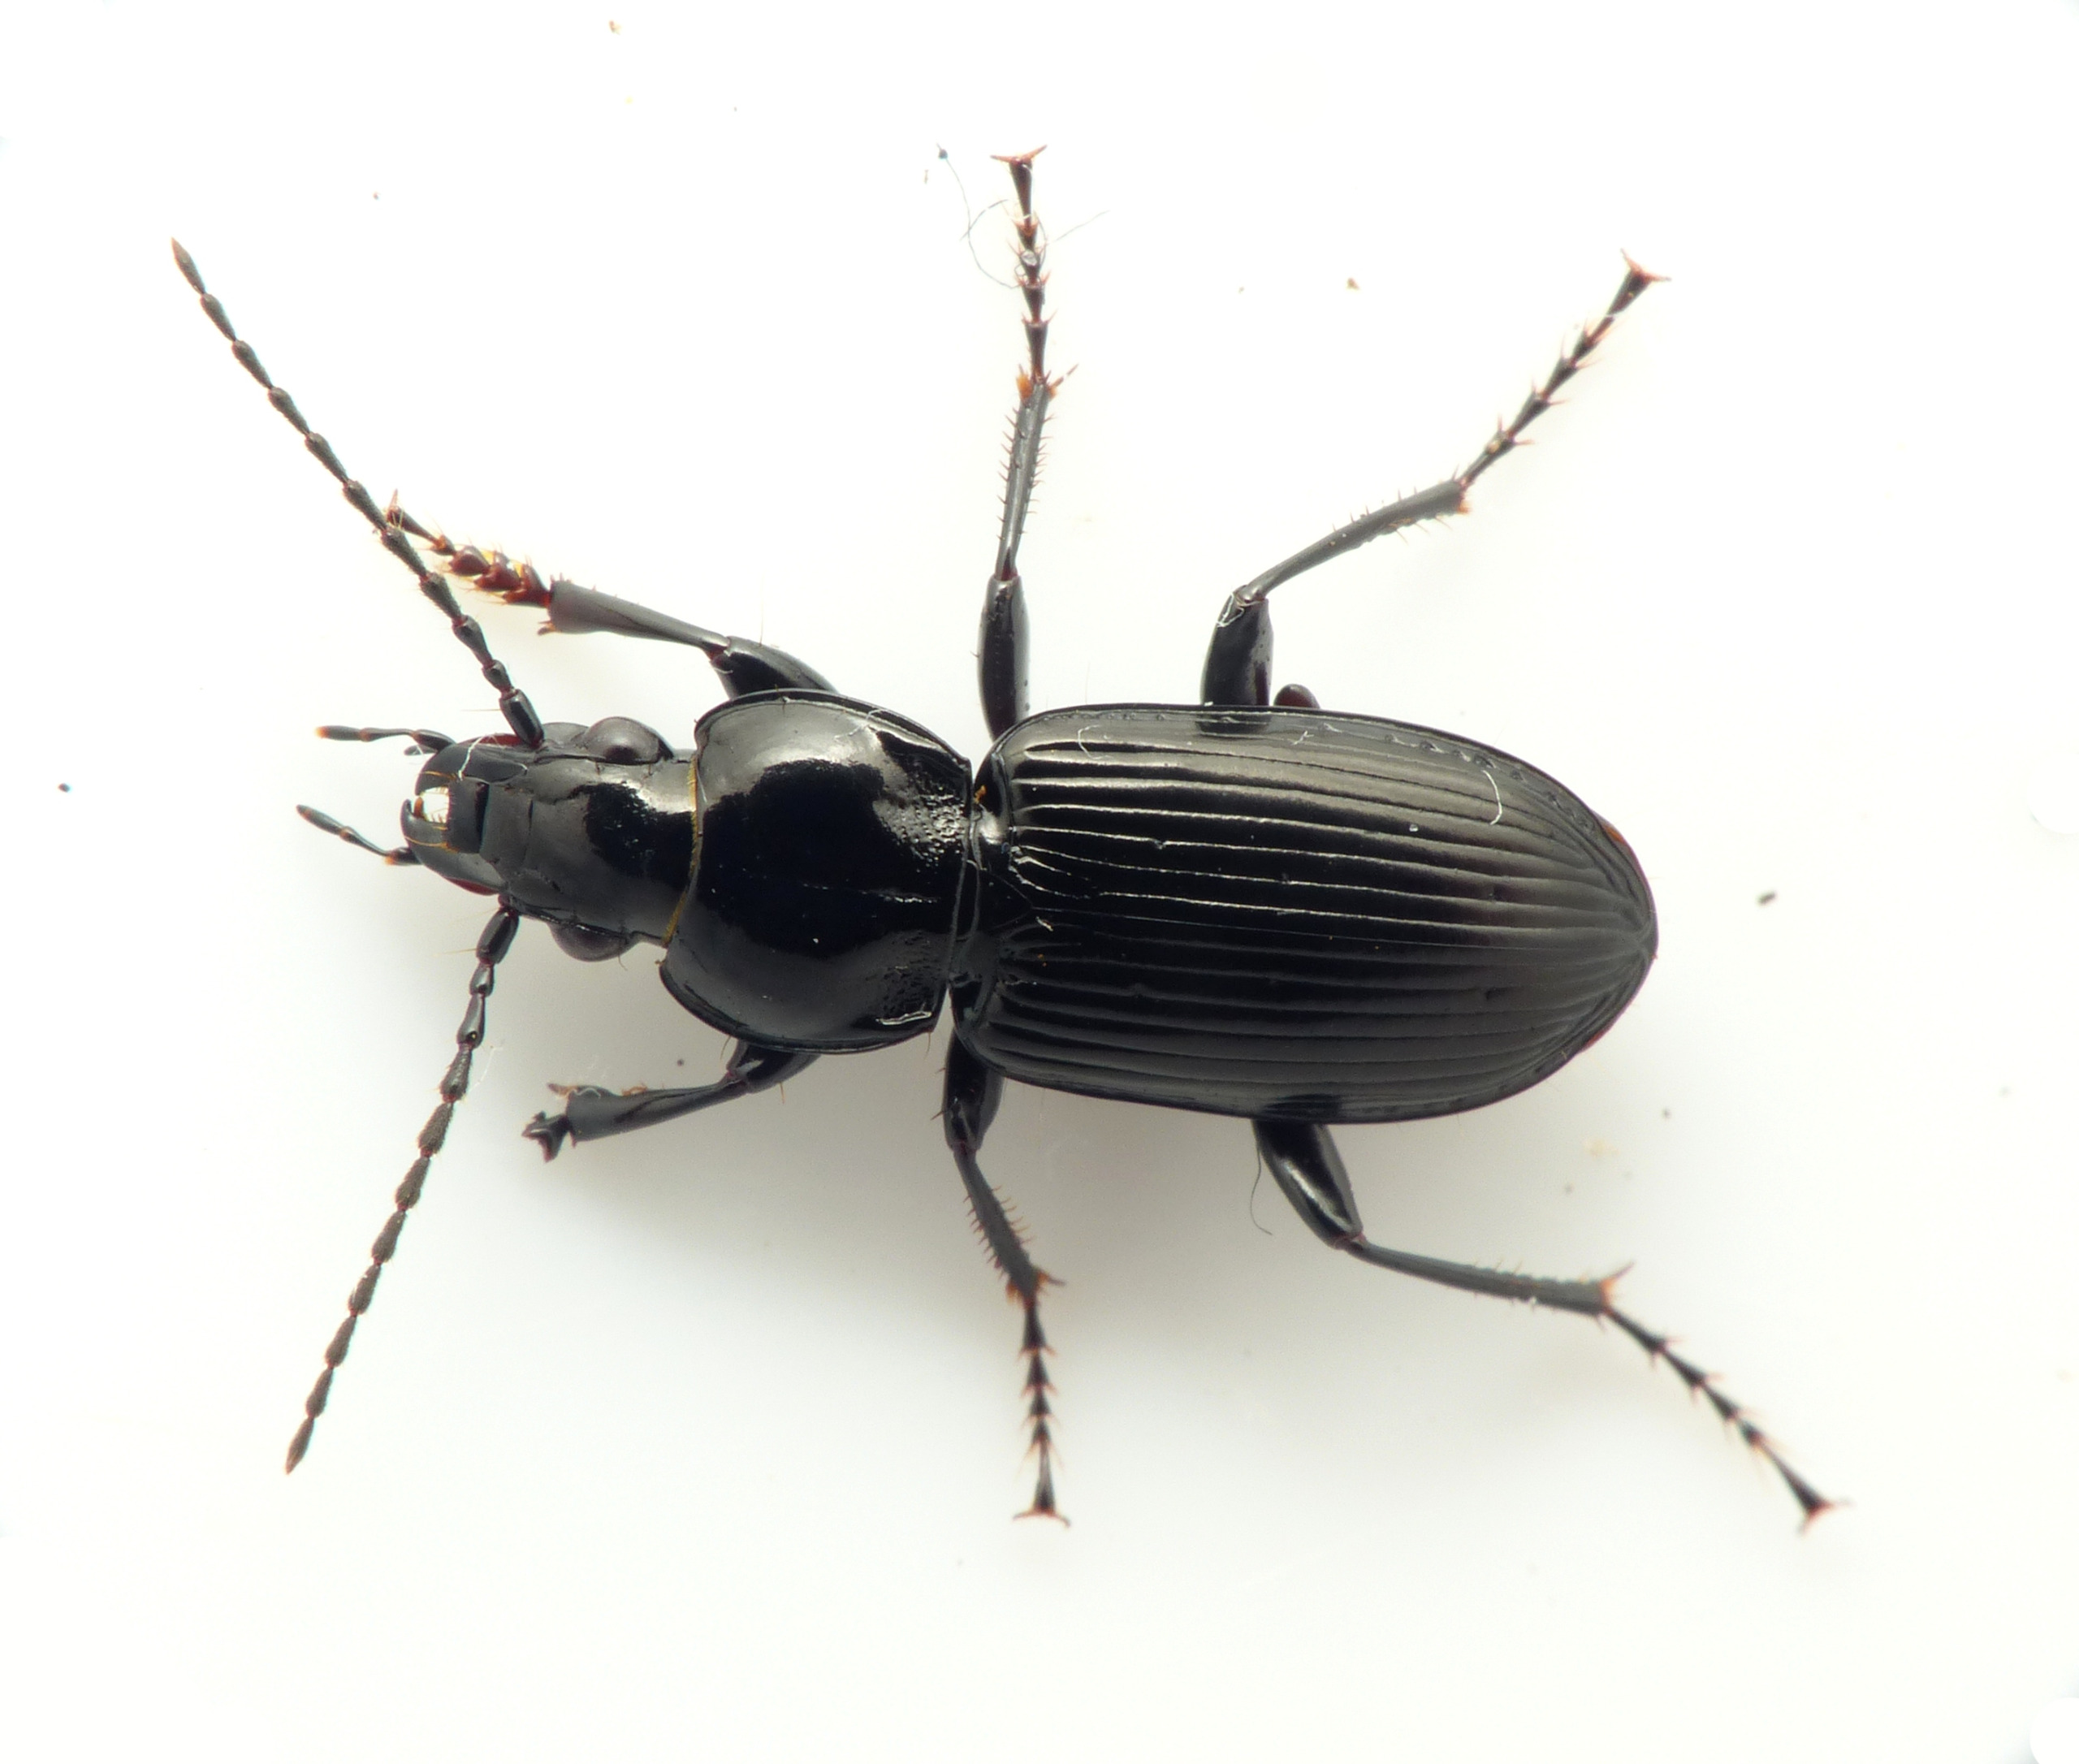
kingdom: Animalia
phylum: Arthropoda
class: Insecta
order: Coleoptera
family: Carabidae
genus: Pterostichus
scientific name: Pterostichus rhaeticus
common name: Mosejordløber
